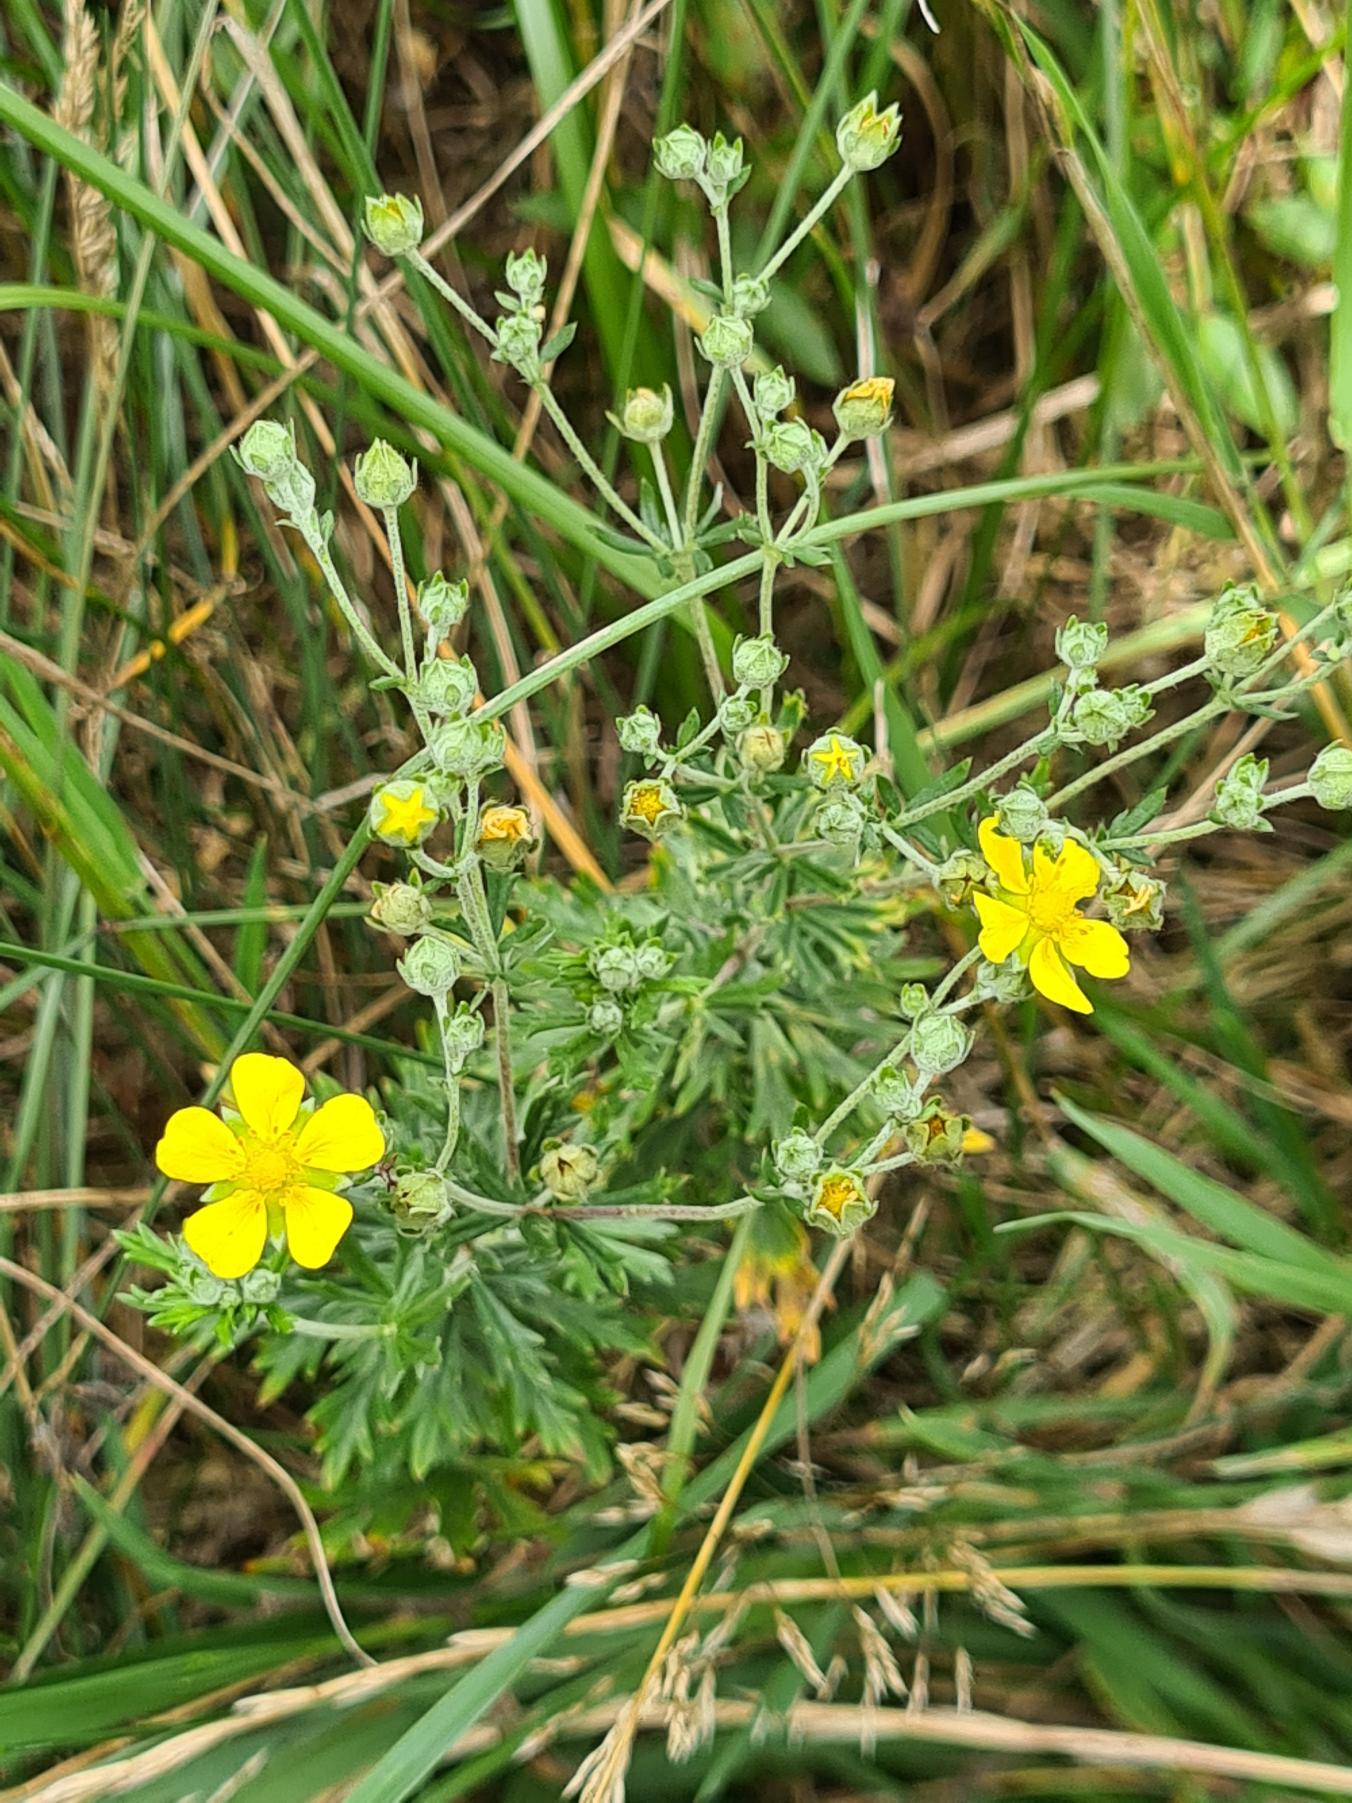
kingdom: Plantae
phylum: Tracheophyta
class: Magnoliopsida
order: Rosales
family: Rosaceae
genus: Potentilla
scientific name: Potentilla argentea
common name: Sølv-potentil
